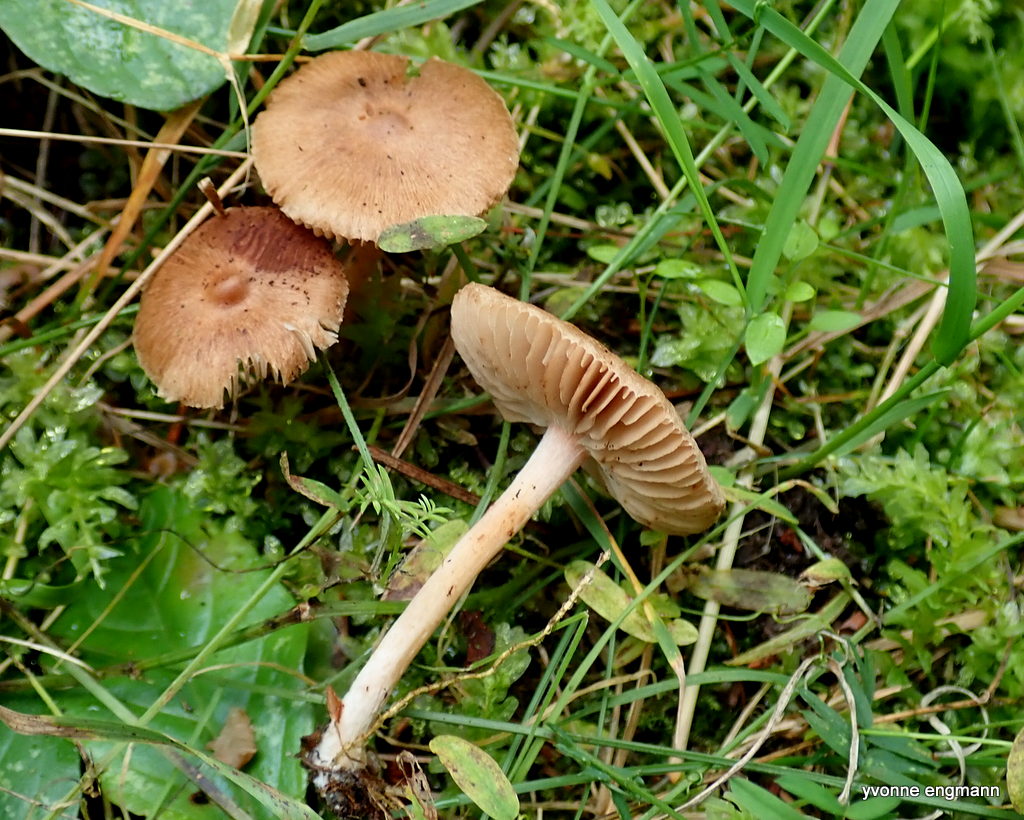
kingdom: Fungi
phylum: Basidiomycota
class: Agaricomycetes
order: Agaricales
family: Inocybaceae
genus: Inocybe
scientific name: Inocybe
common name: trævlhat
